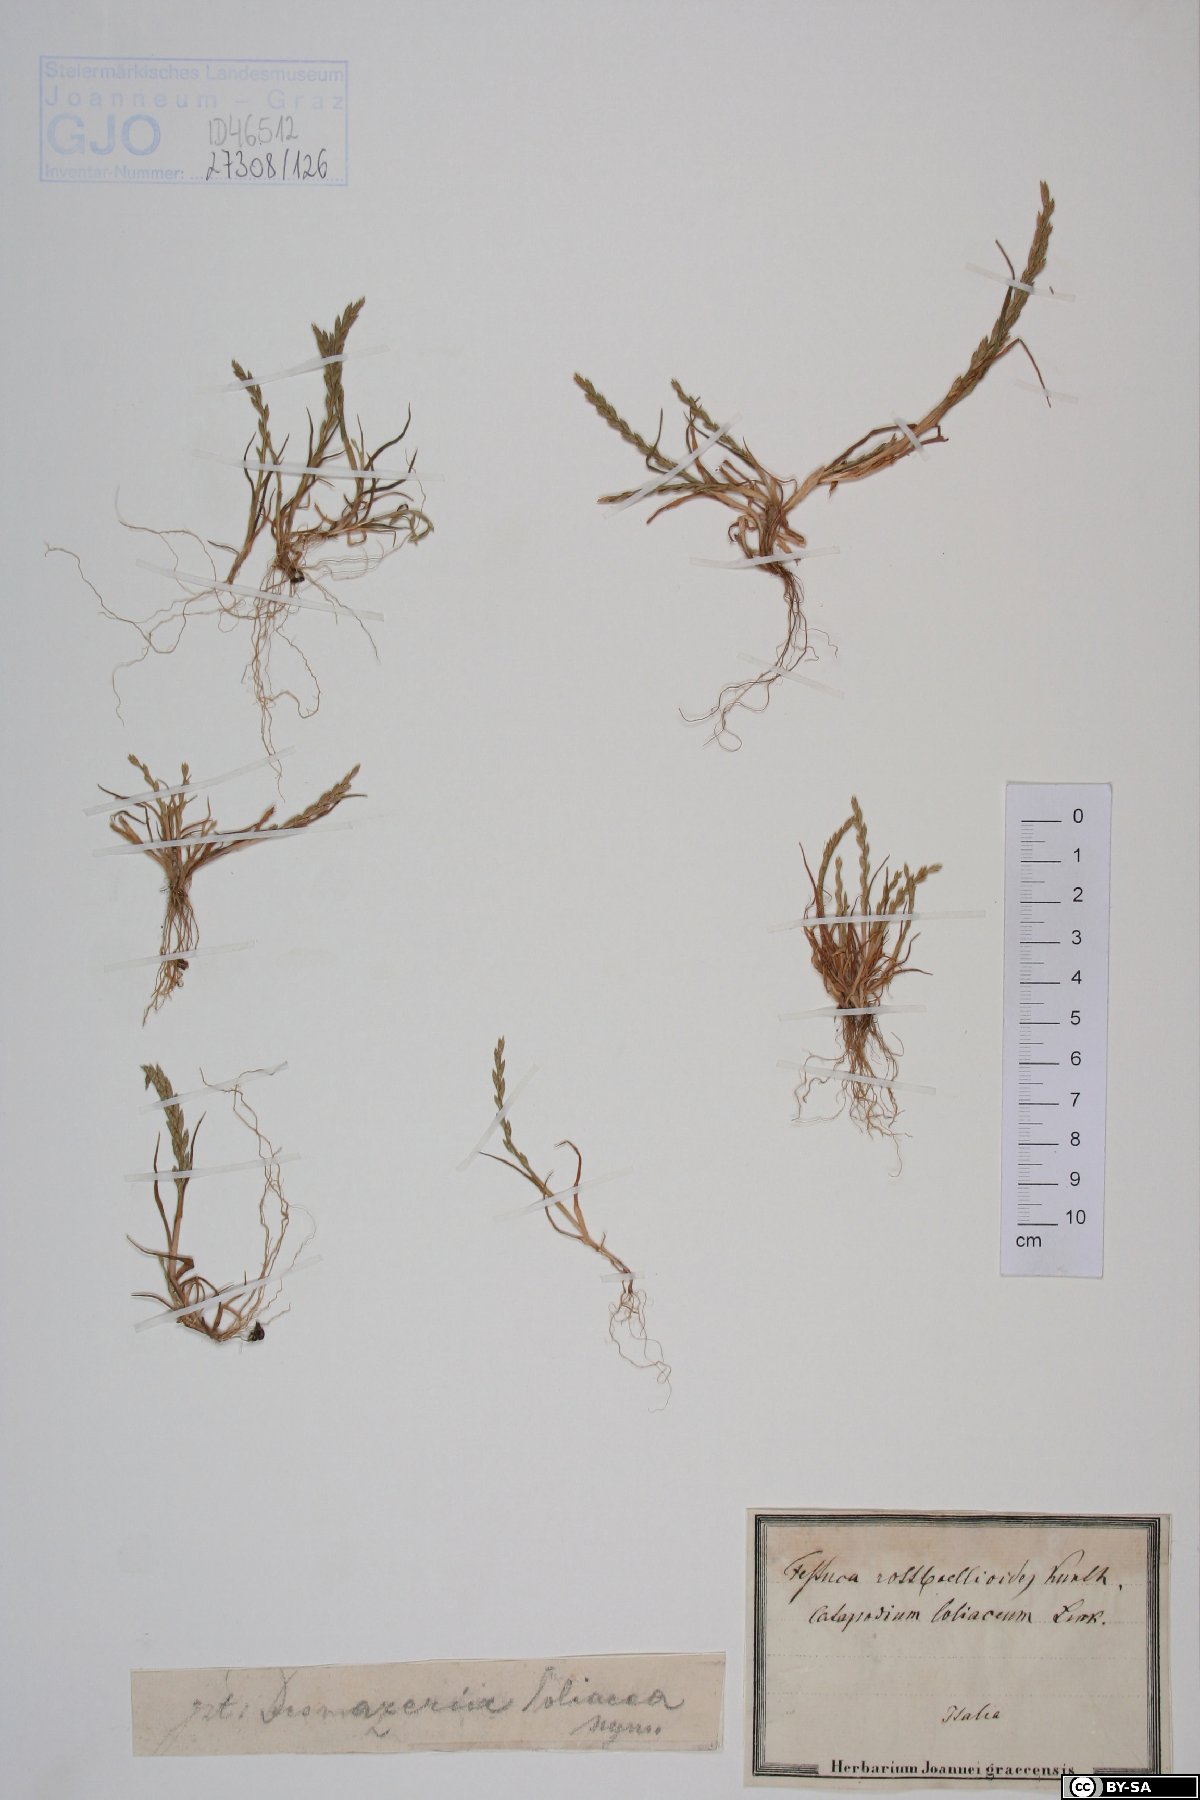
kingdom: Plantae
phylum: Tracheophyta
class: Liliopsida
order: Poales
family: Poaceae
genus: Catapodium
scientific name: Catapodium marinum
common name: Sea fern-grass
